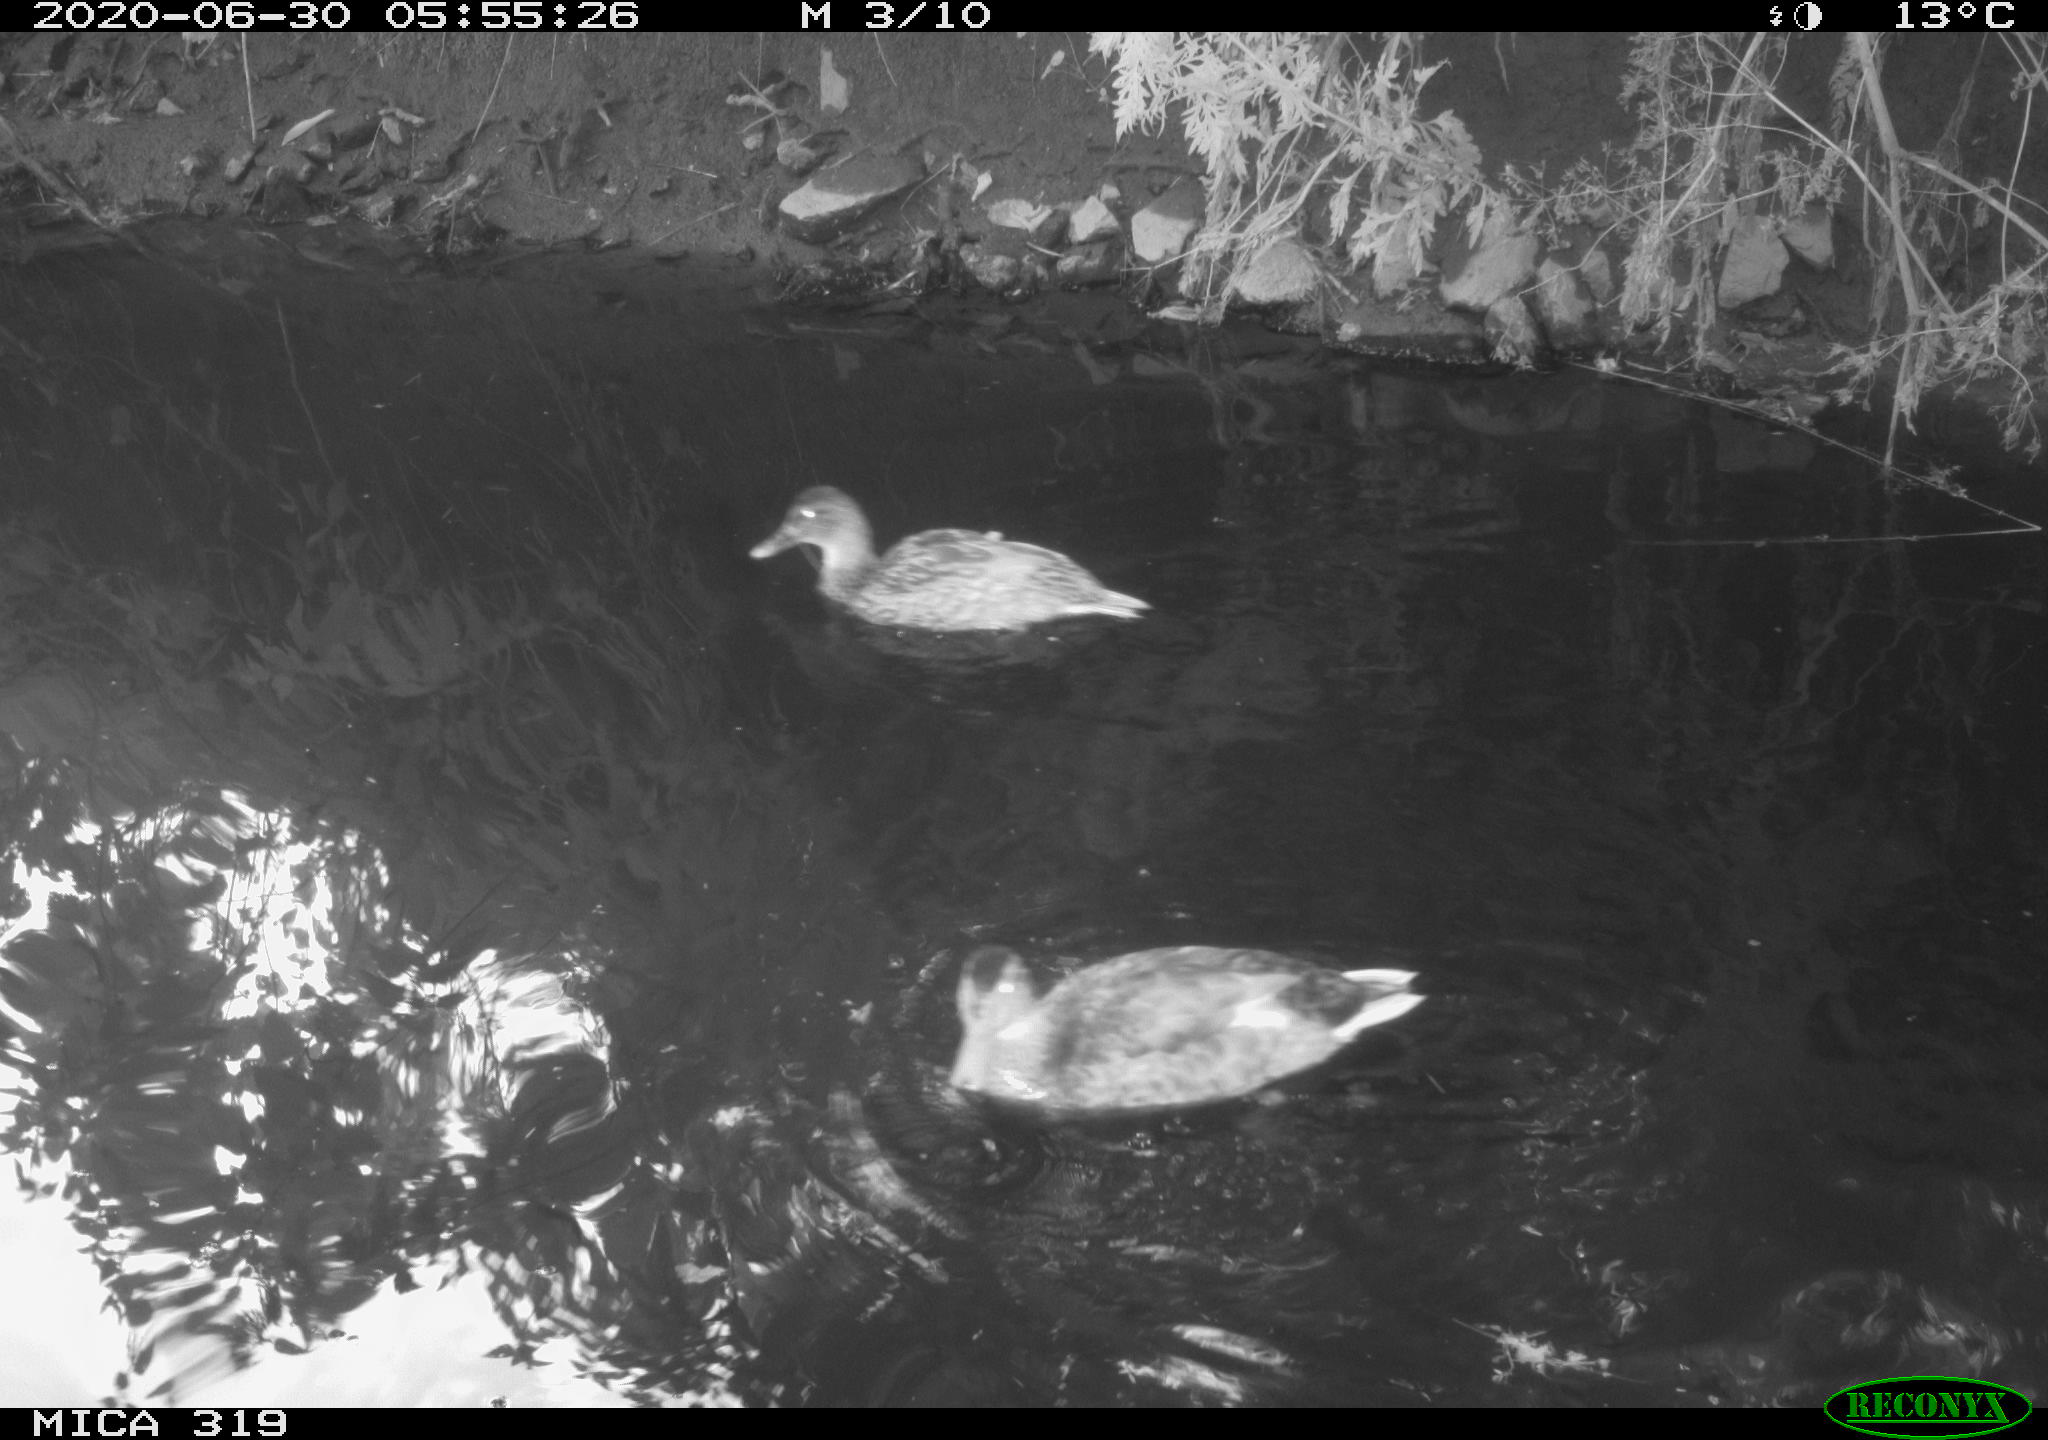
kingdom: Animalia
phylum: Chordata
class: Aves
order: Anseriformes
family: Anatidae
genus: Anas
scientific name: Anas platyrhynchos
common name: Mallard
